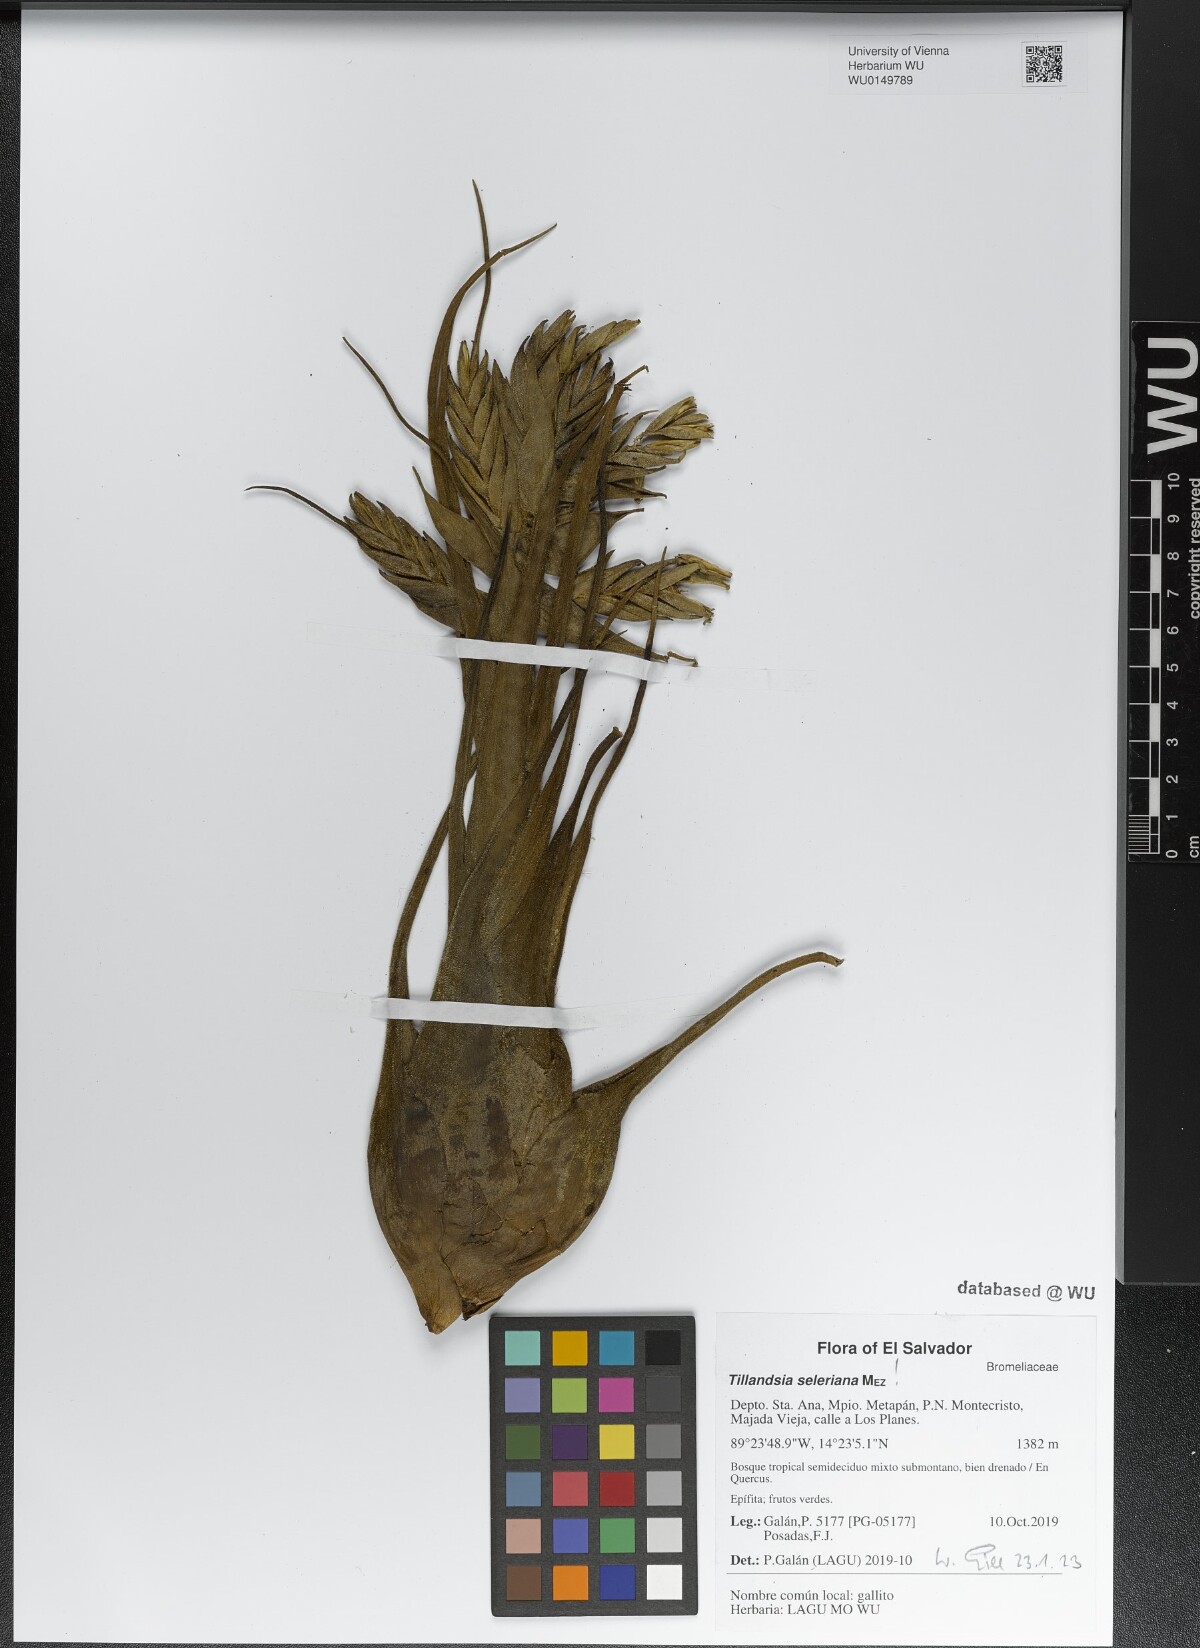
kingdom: Plantae
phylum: Tracheophyta
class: Liliopsida
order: Poales
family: Bromeliaceae
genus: Tillandsia
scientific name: Tillandsia seleriana
